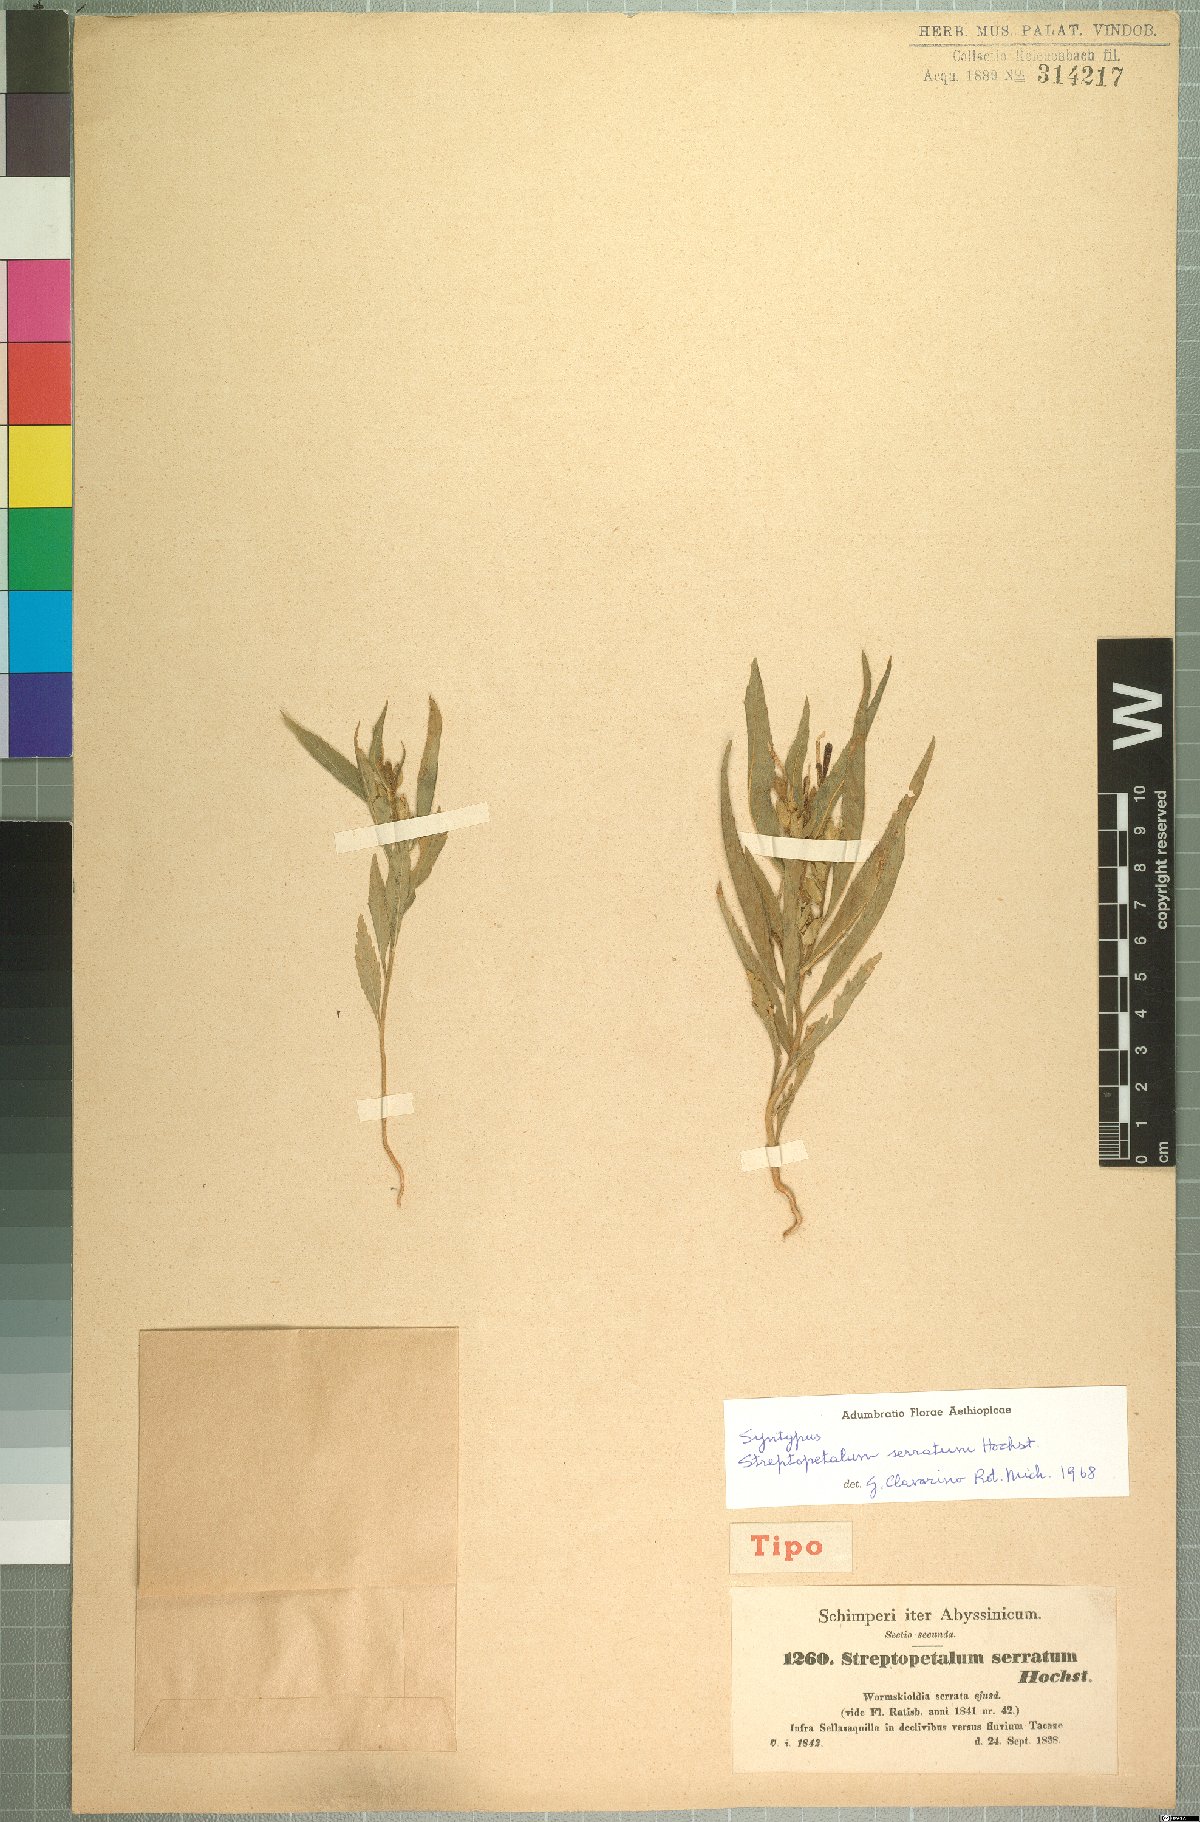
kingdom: Plantae
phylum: Tracheophyta
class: Magnoliopsida
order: Malpighiales
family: Turneraceae
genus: Streptopetalum
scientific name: Streptopetalum serratum
